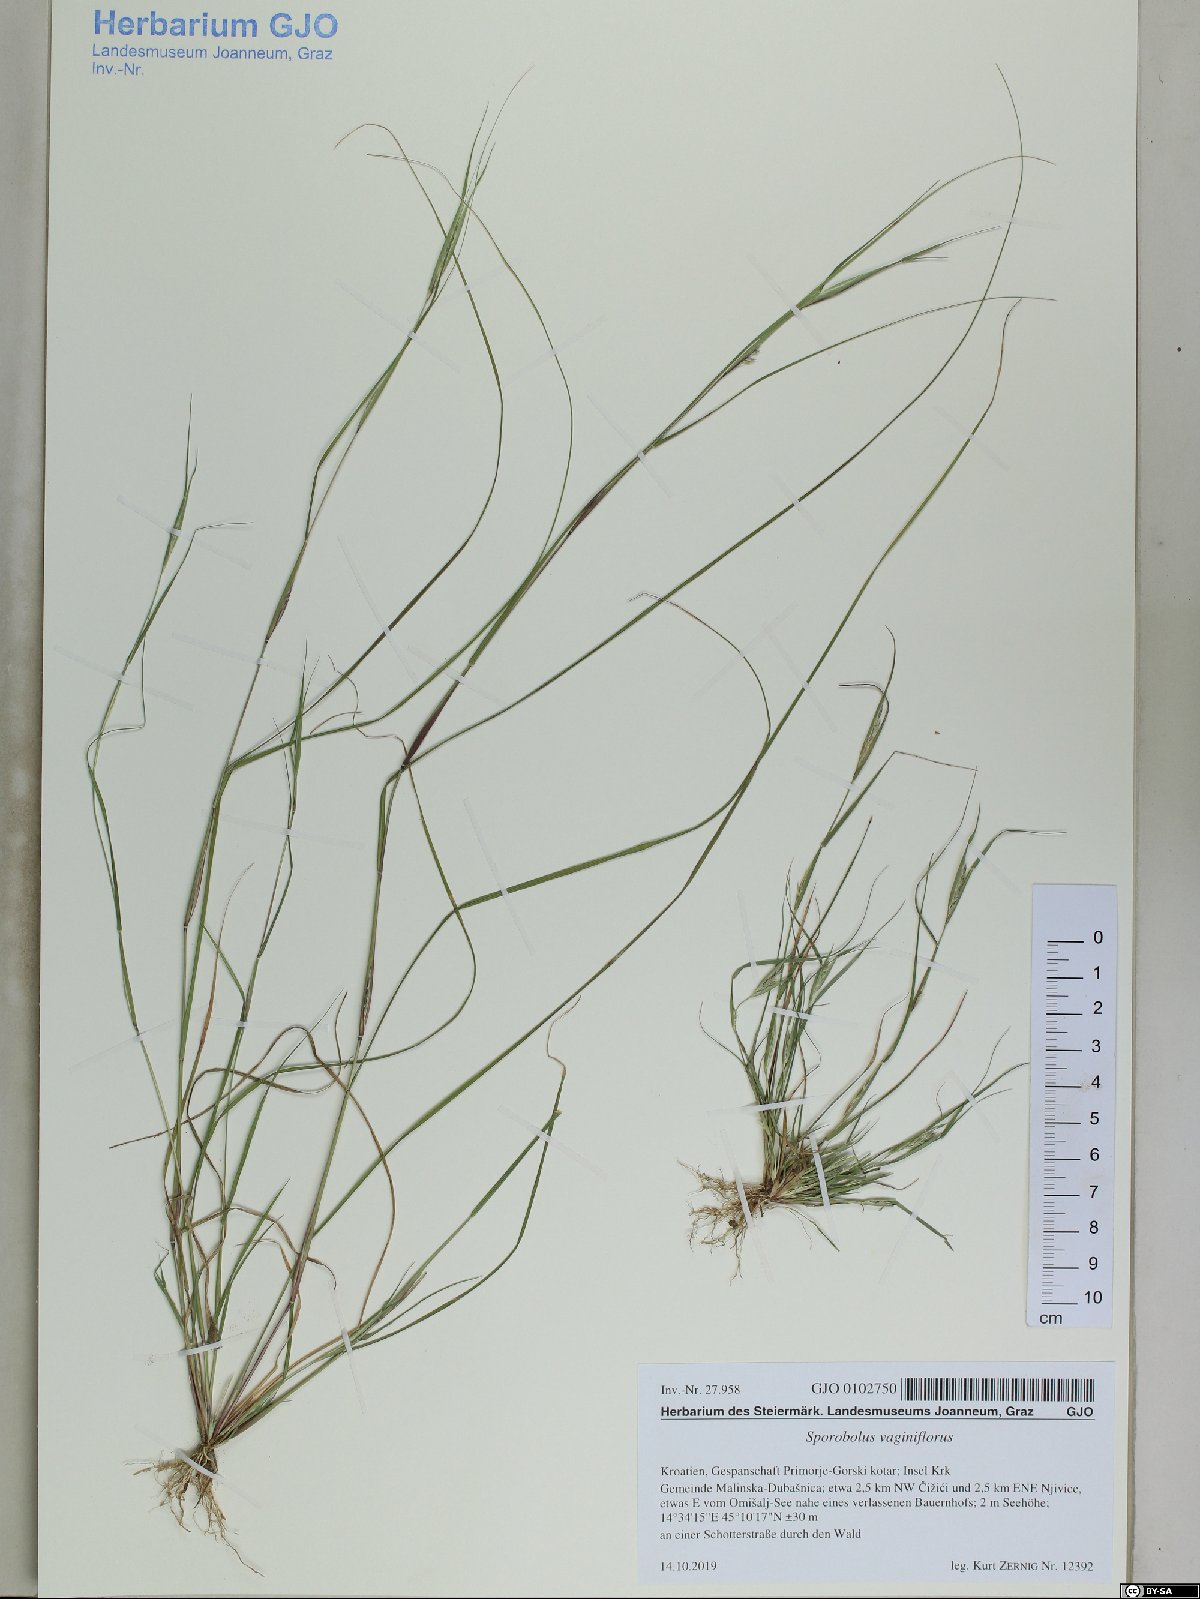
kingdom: Plantae
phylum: Tracheophyta
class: Liliopsida
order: Poales
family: Poaceae
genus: Sporobolus
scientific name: Sporobolus vaginiflorus
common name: Poverty dropseed
